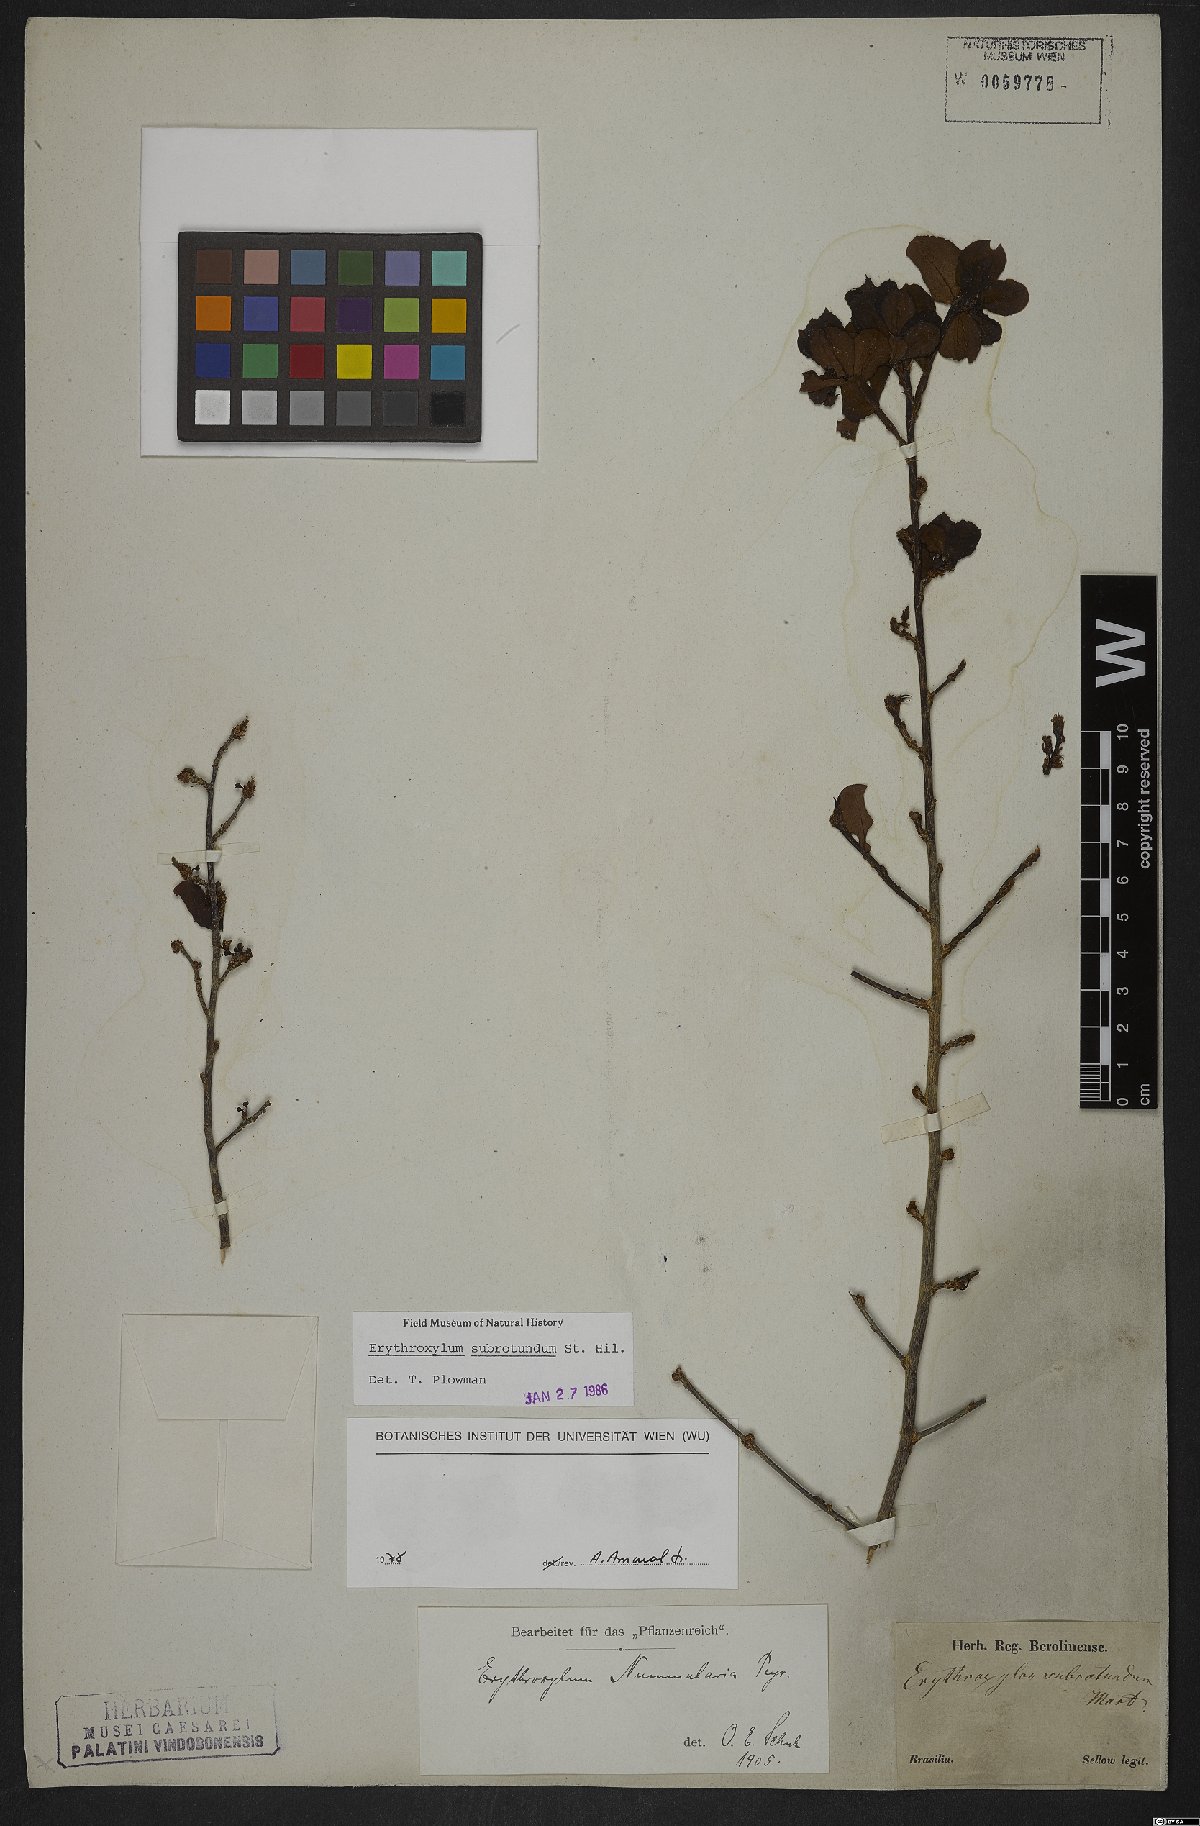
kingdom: Plantae
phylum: Tracheophyta
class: Magnoliopsida
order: Malpighiales
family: Erythroxylaceae
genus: Erythroxylum
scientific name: Erythroxylum subrotundum
